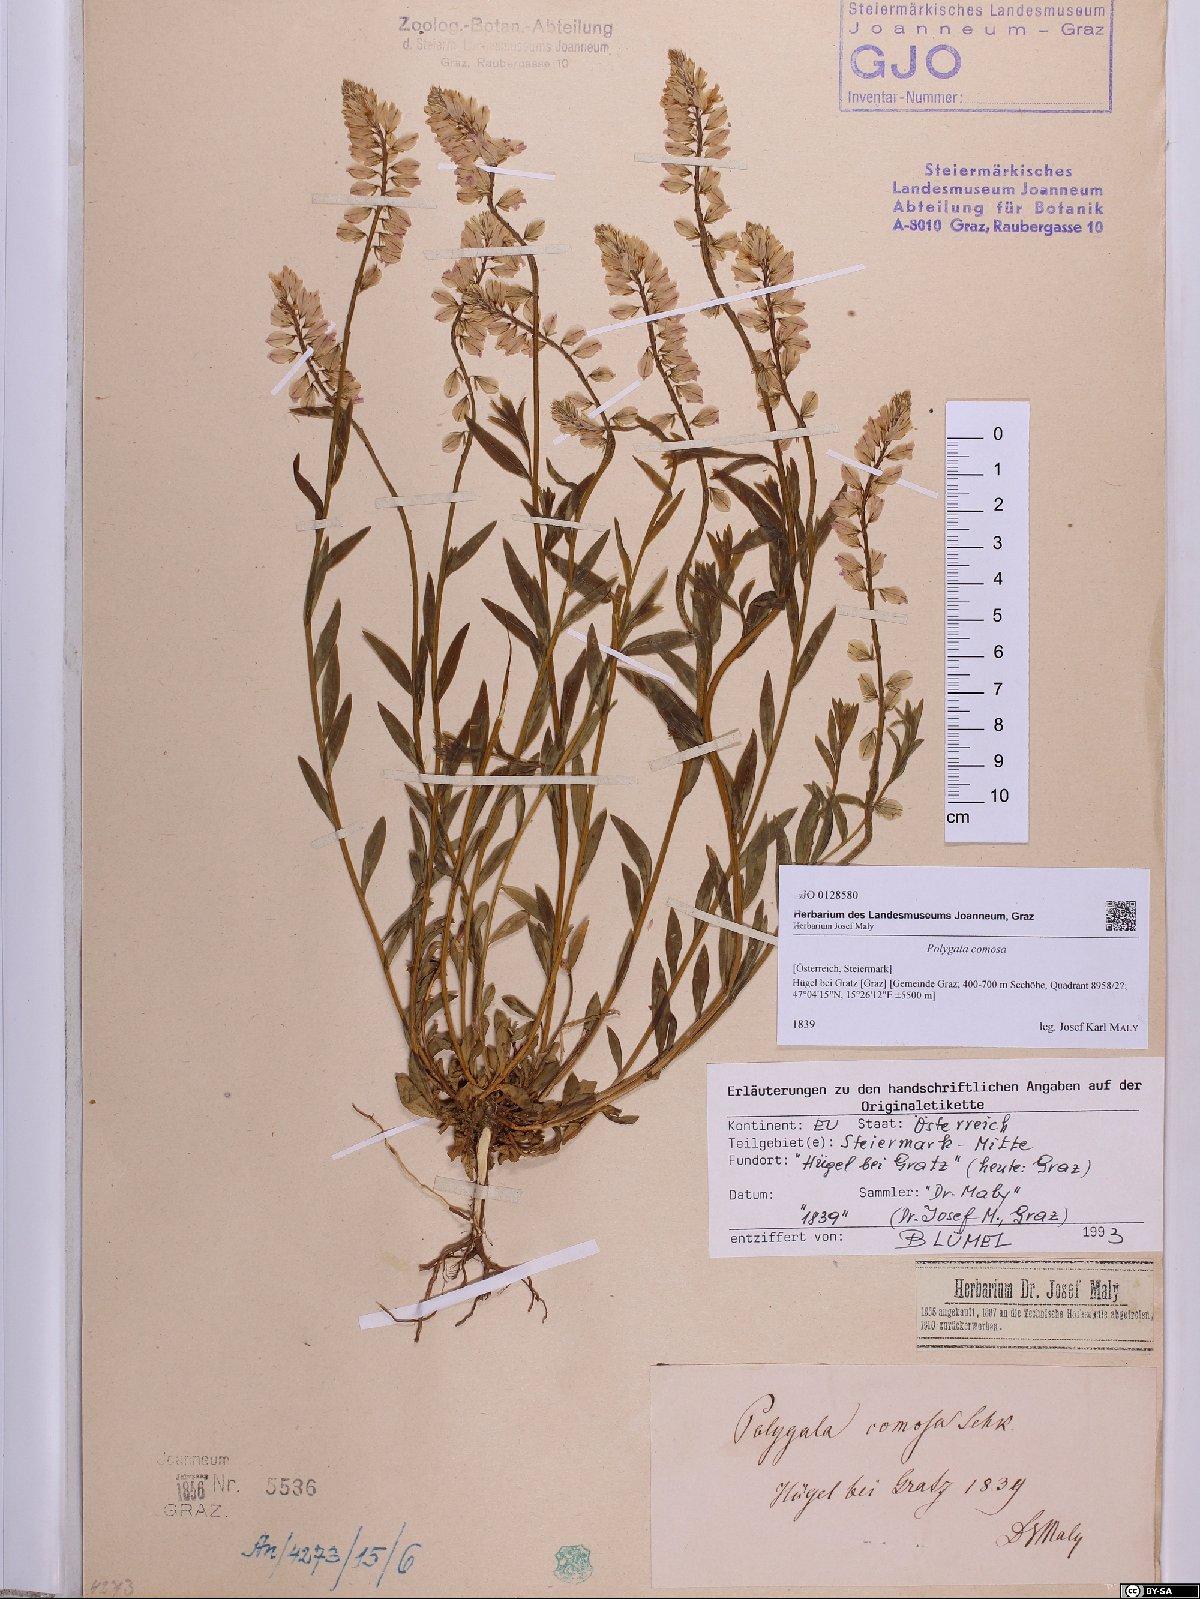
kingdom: Plantae
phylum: Tracheophyta
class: Magnoliopsida
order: Fabales
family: Polygalaceae
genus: Polygala
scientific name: Polygala comosa
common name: Tufted milkwort
